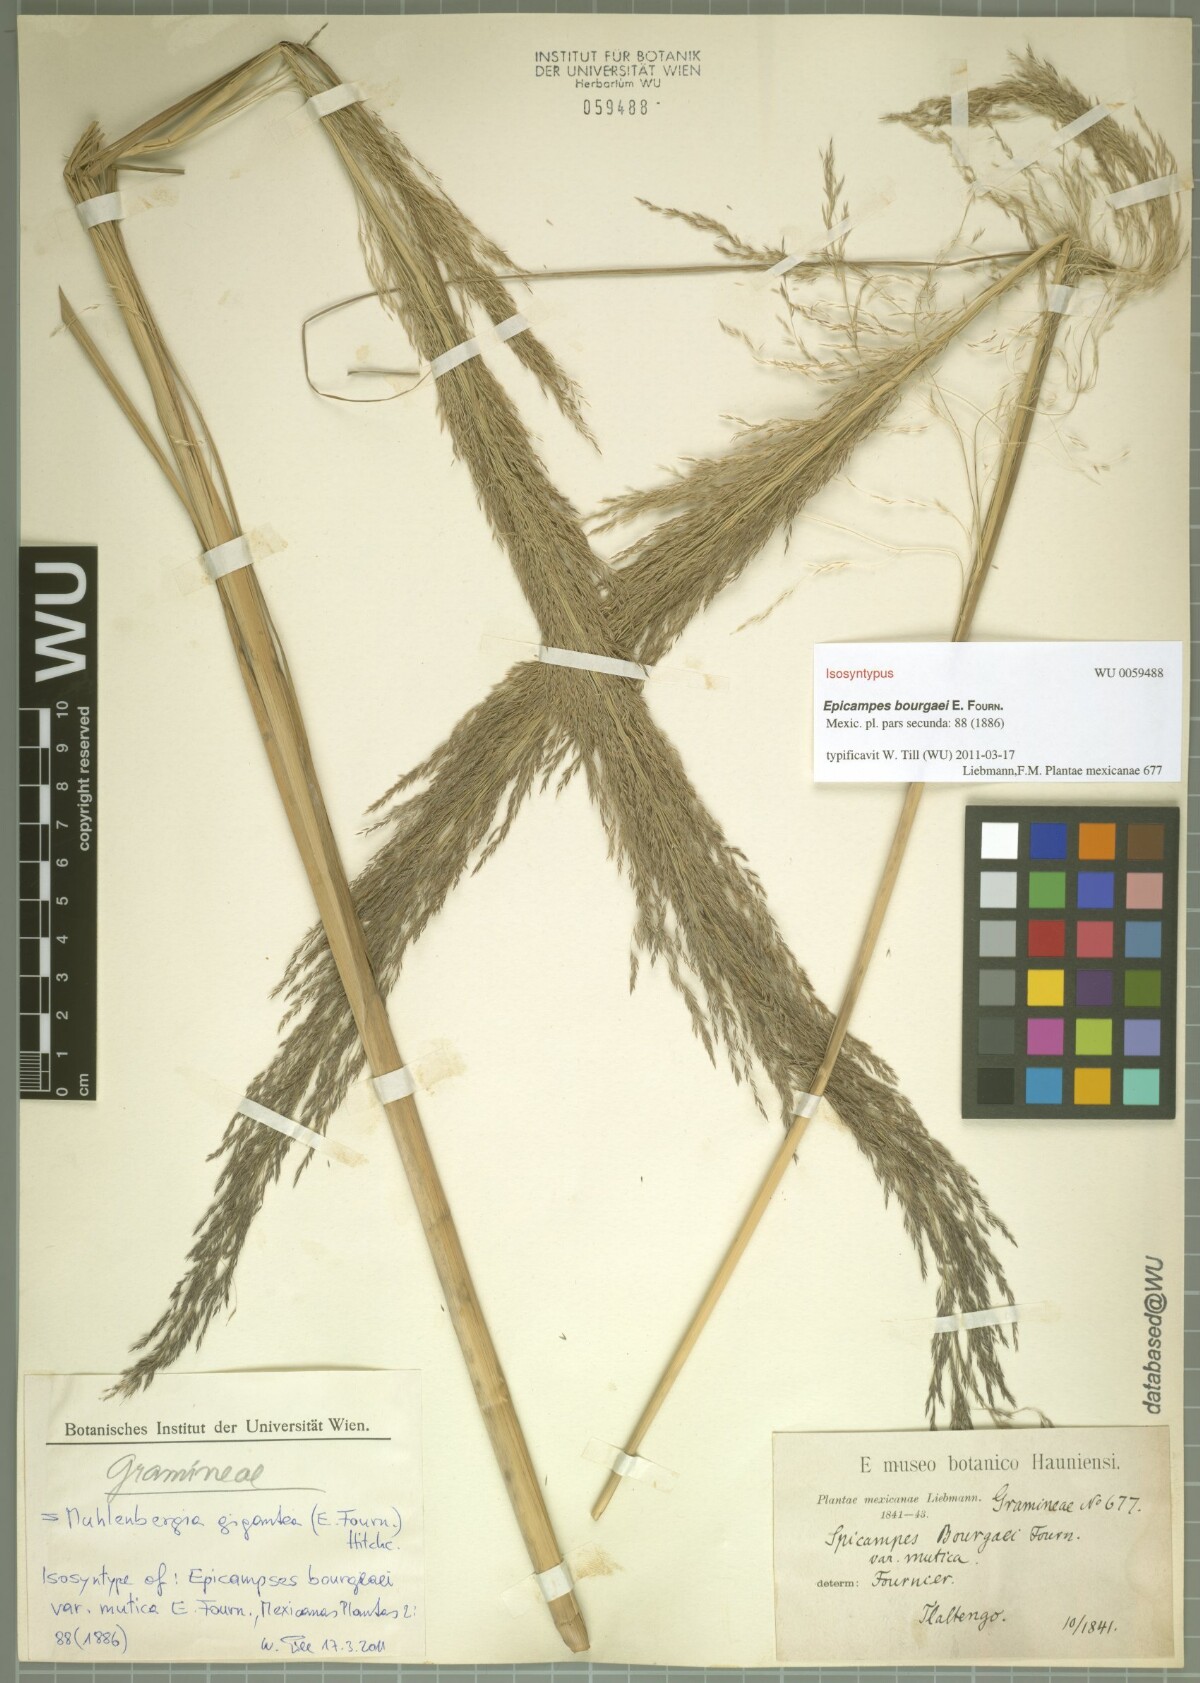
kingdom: Plantae
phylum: Tracheophyta
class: Liliopsida
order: Poales
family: Poaceae
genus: Muhlenbergia
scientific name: Muhlenbergia gigantea
